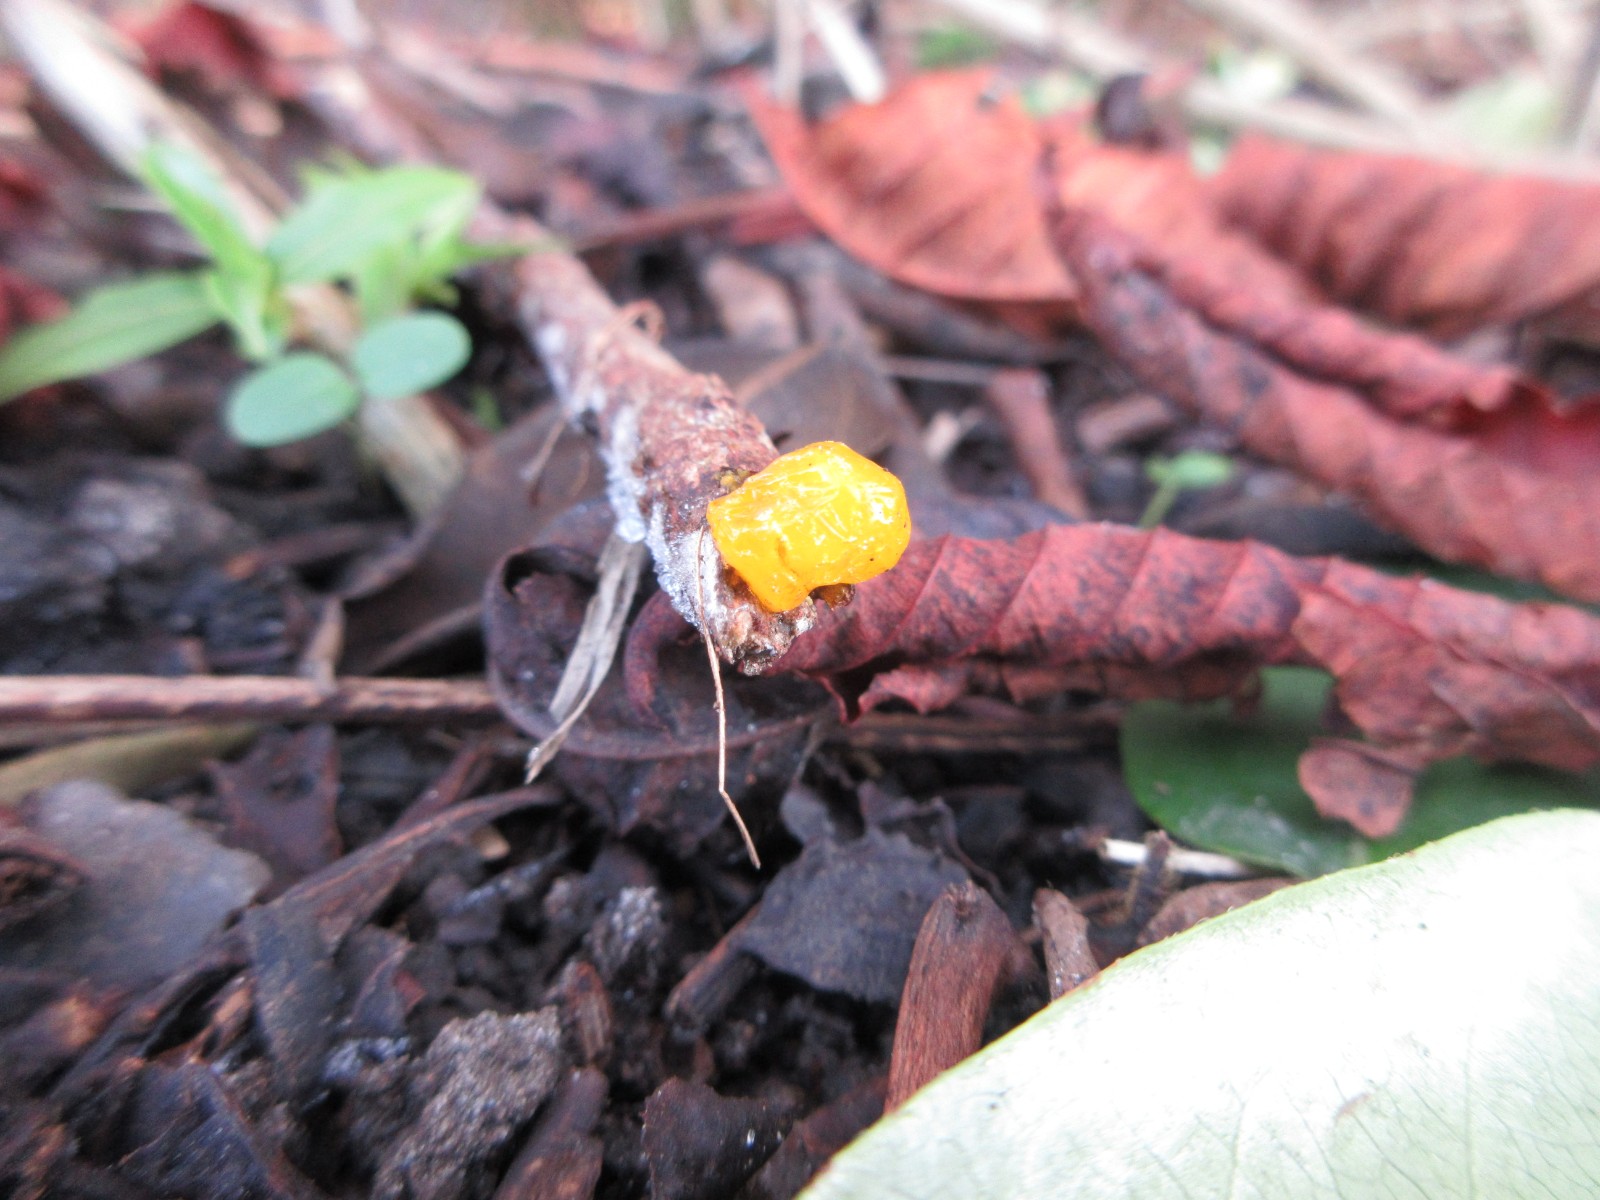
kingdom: Fungi
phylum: Basidiomycota
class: Tremellomycetes
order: Tremellales
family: Tremellaceae
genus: Tremella
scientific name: Tremella mesenterica
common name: gul bævresvamp
